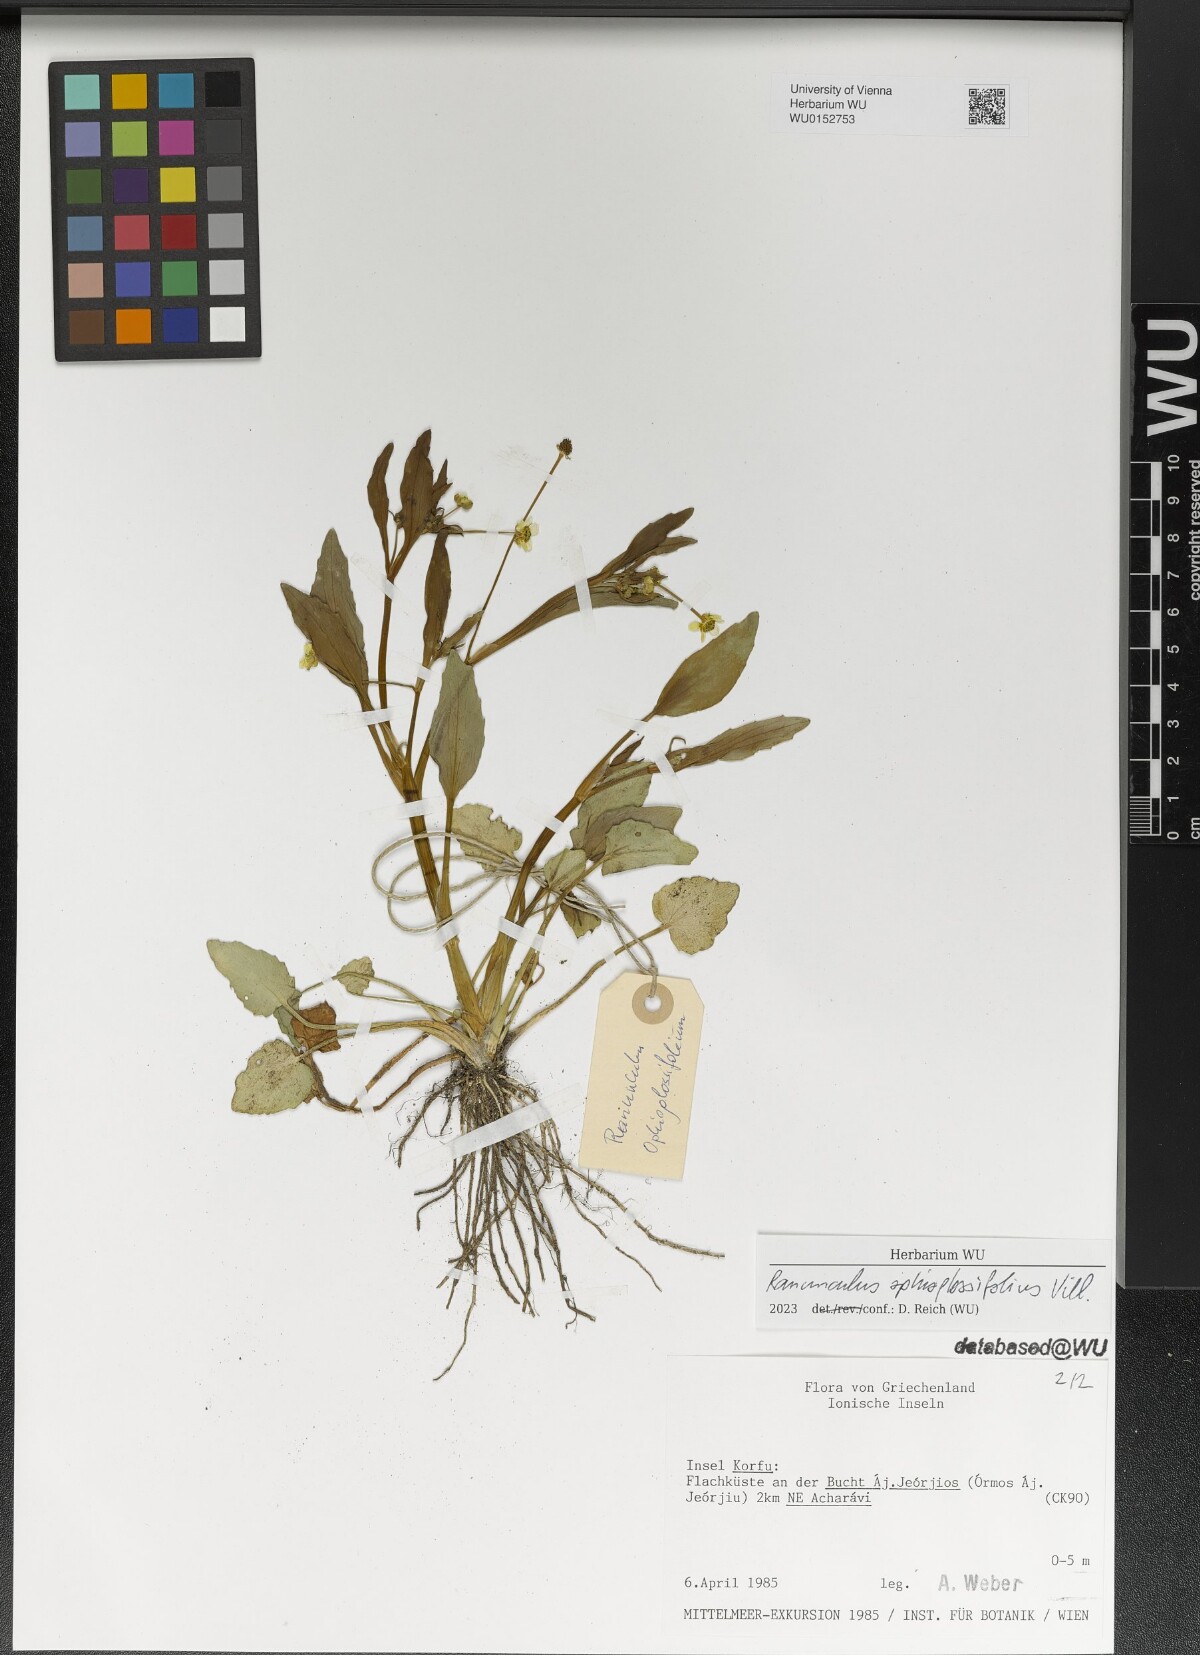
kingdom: Plantae
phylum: Tracheophyta
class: Magnoliopsida
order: Ranunculales
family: Ranunculaceae
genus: Ranunculus
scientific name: Ranunculus ophioglossifolius
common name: Adder's-tongue spearwort
